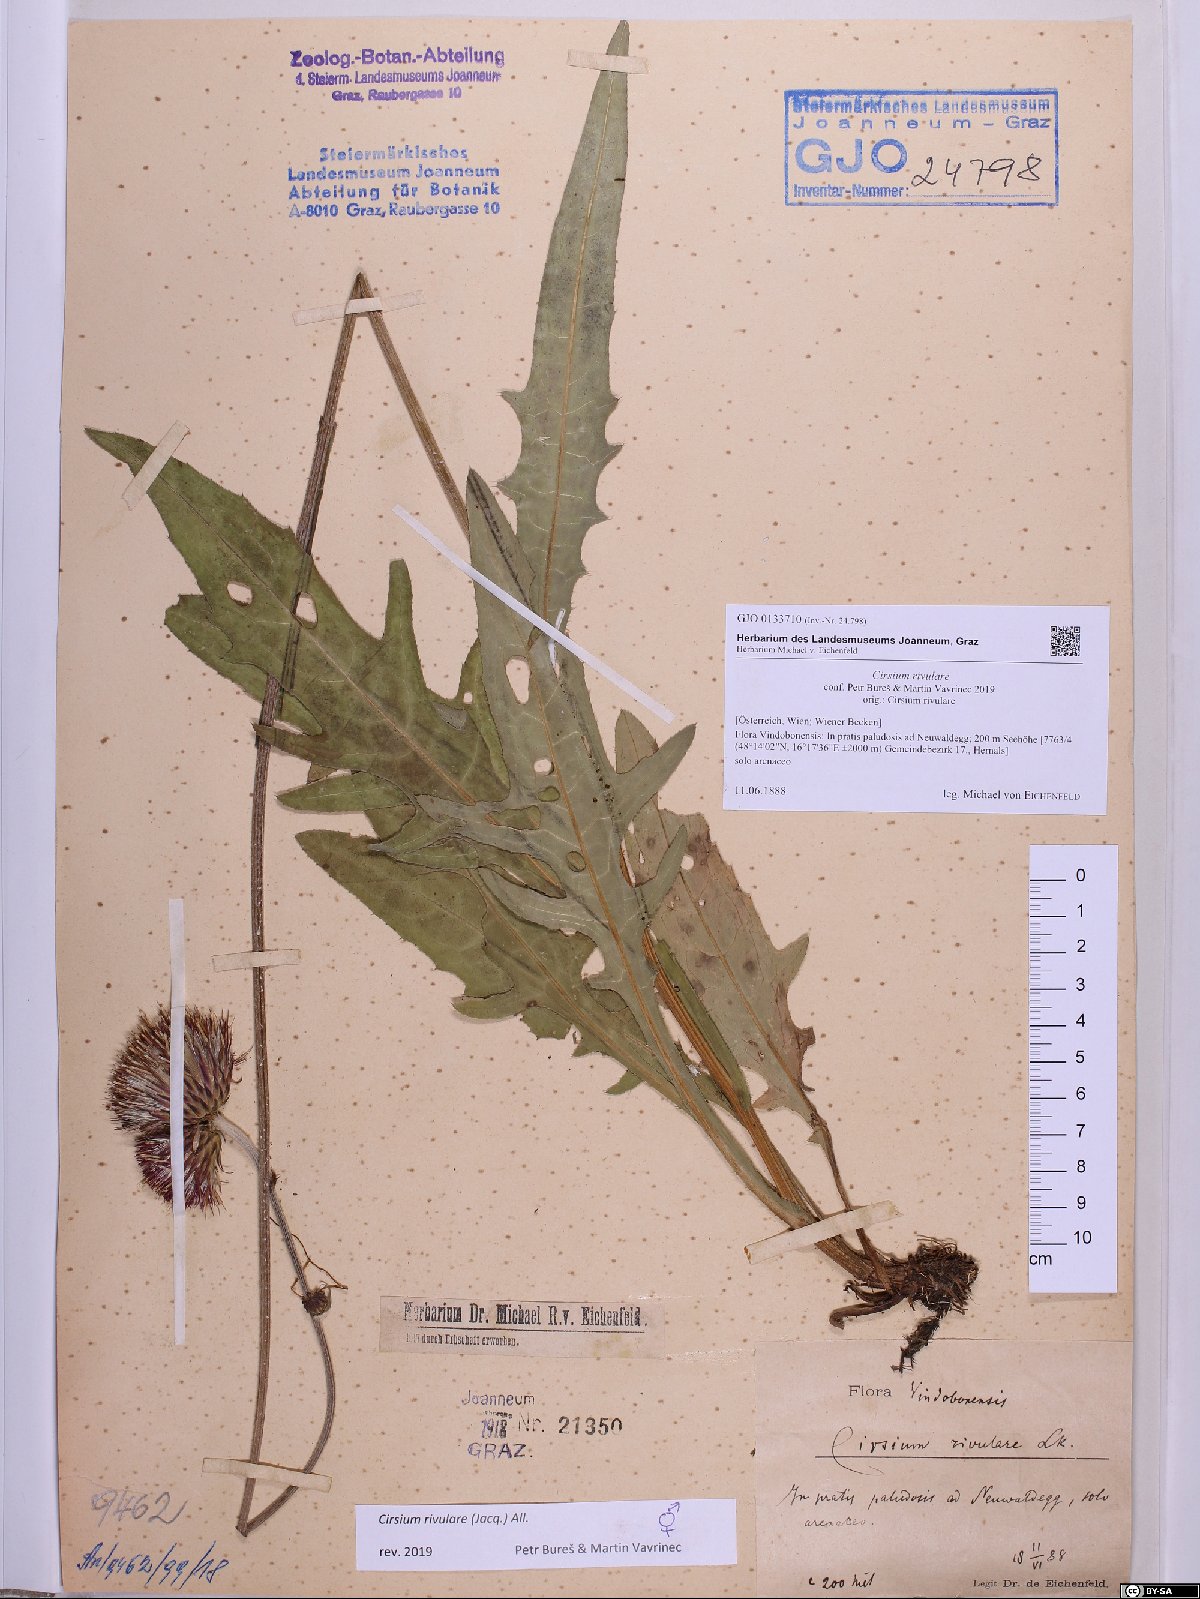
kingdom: Plantae
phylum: Tracheophyta
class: Magnoliopsida
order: Asterales
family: Asteraceae
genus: Cirsium
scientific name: Cirsium rivulare
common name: Brook thistle
